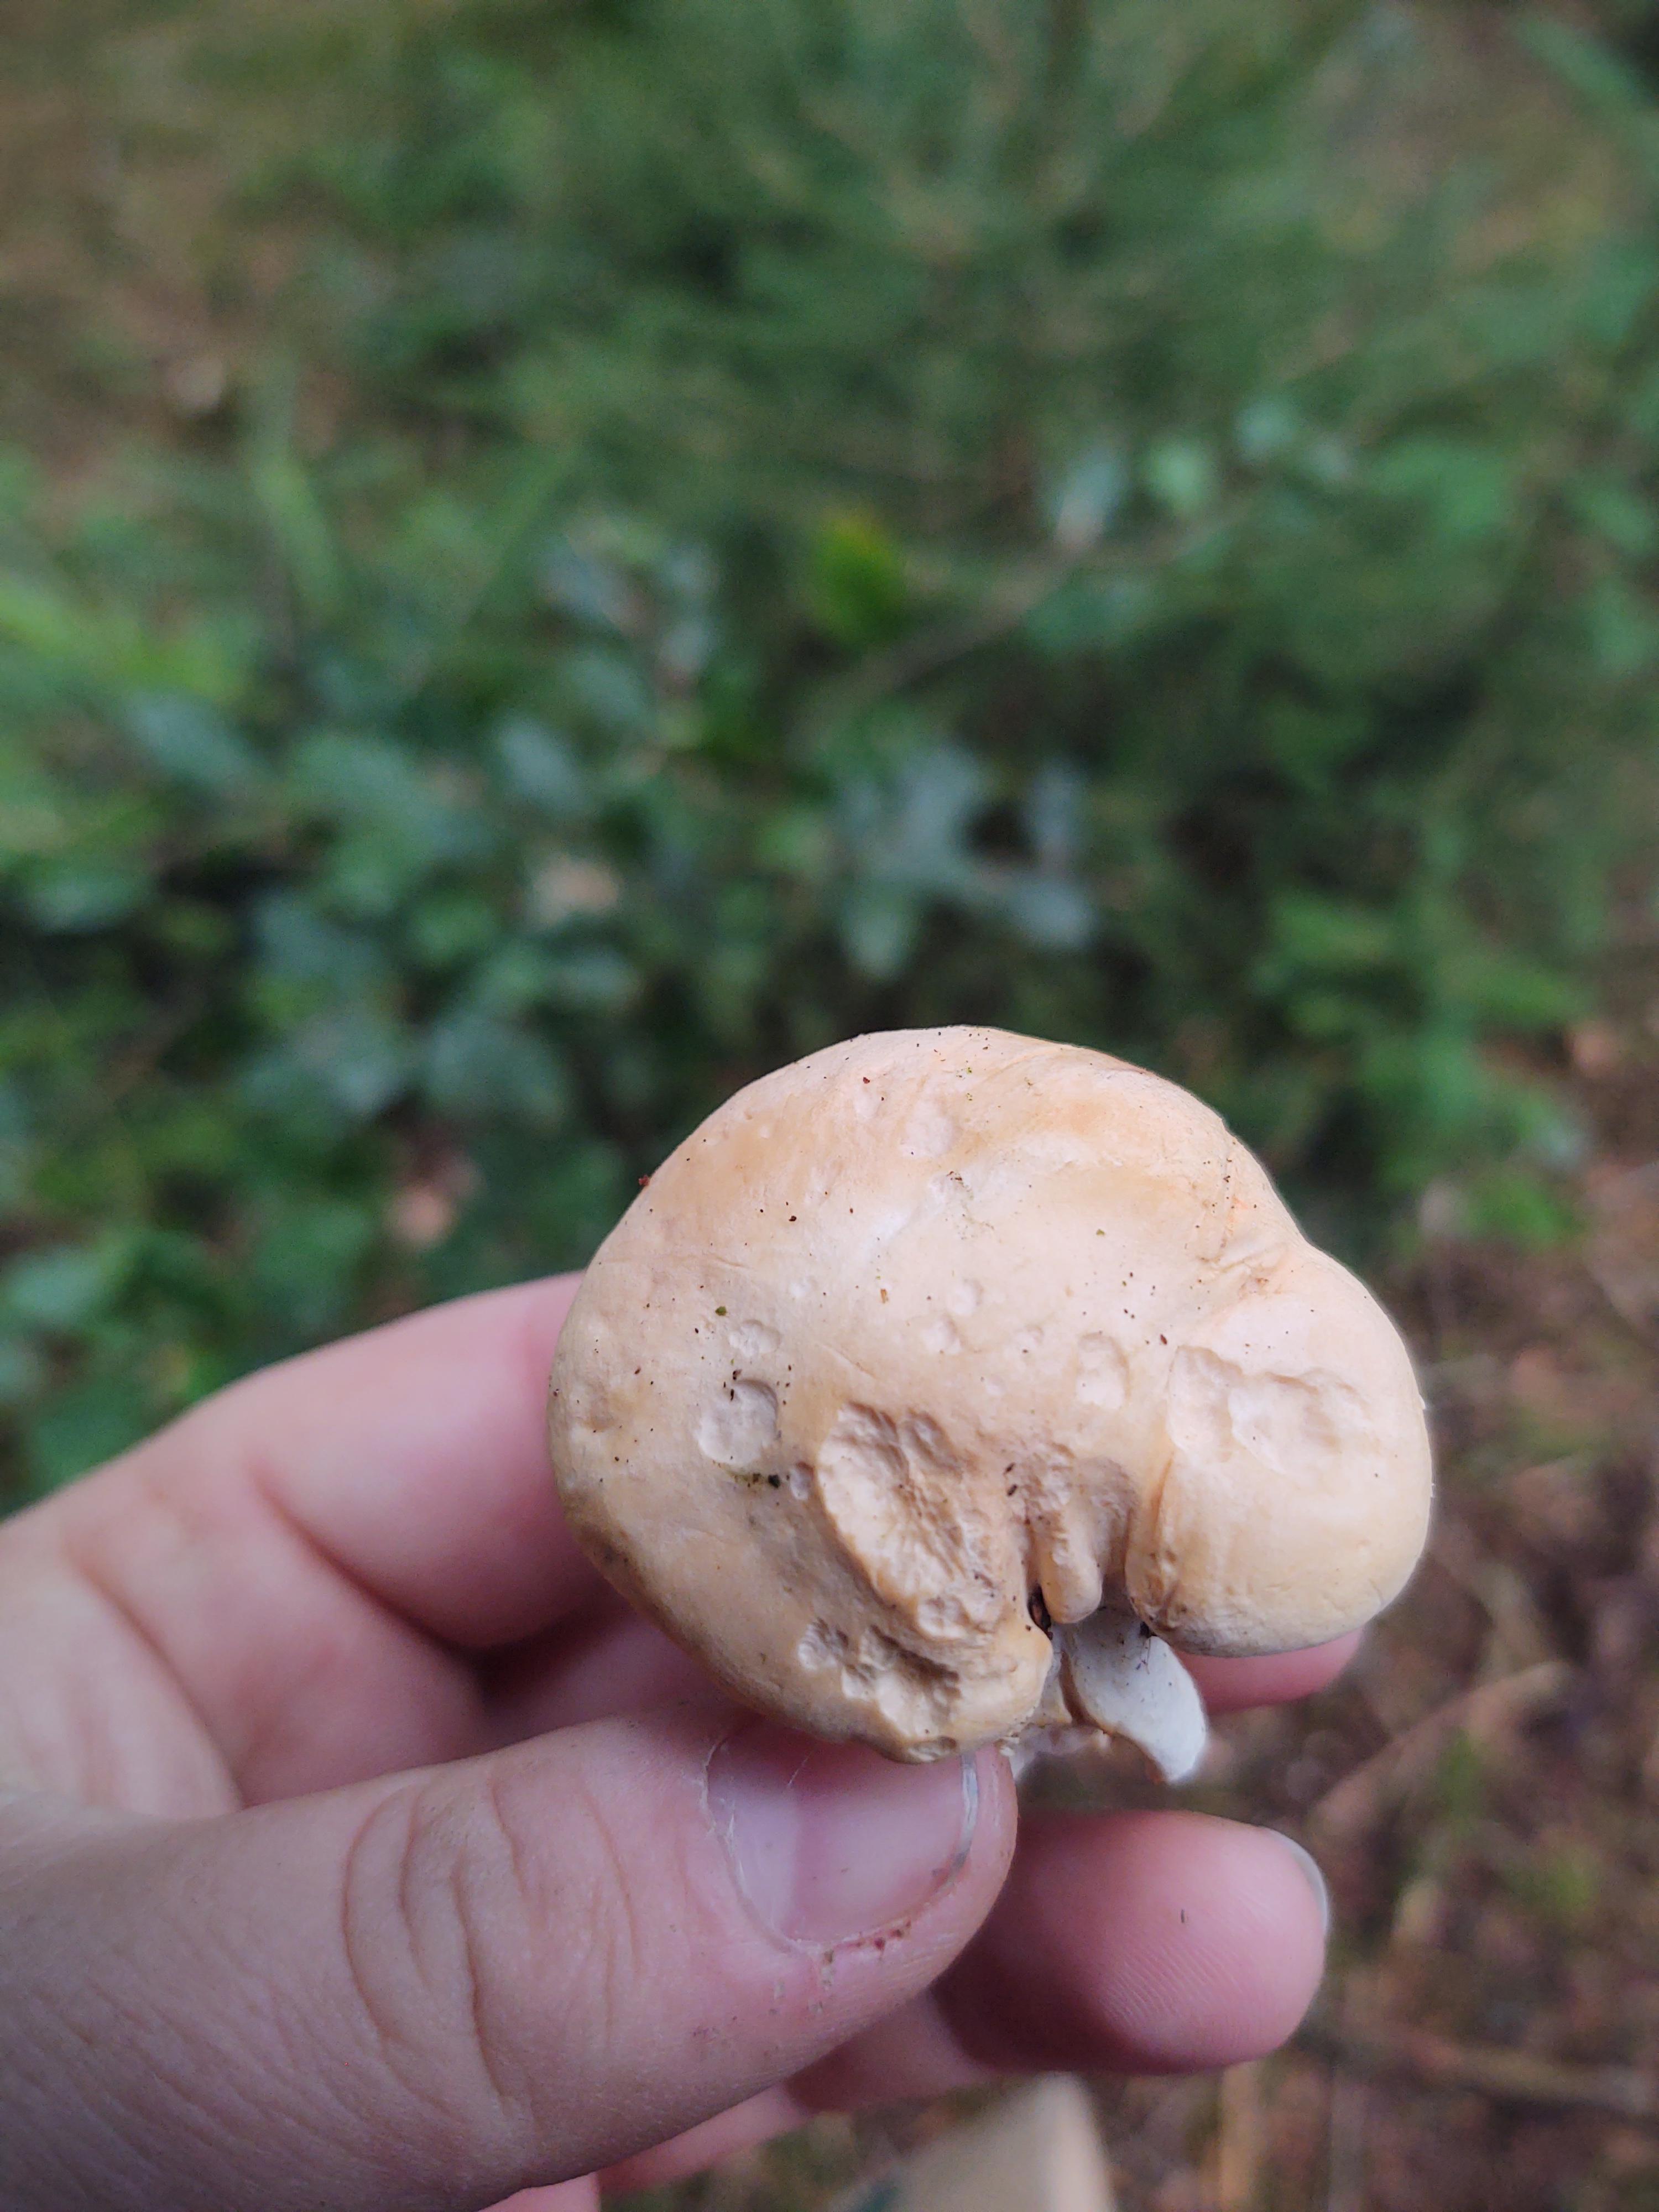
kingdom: Fungi
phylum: Basidiomycota
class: Agaricomycetes
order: Cantharellales
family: Hydnaceae
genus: Hydnum
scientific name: Hydnum
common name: pigsvamp
